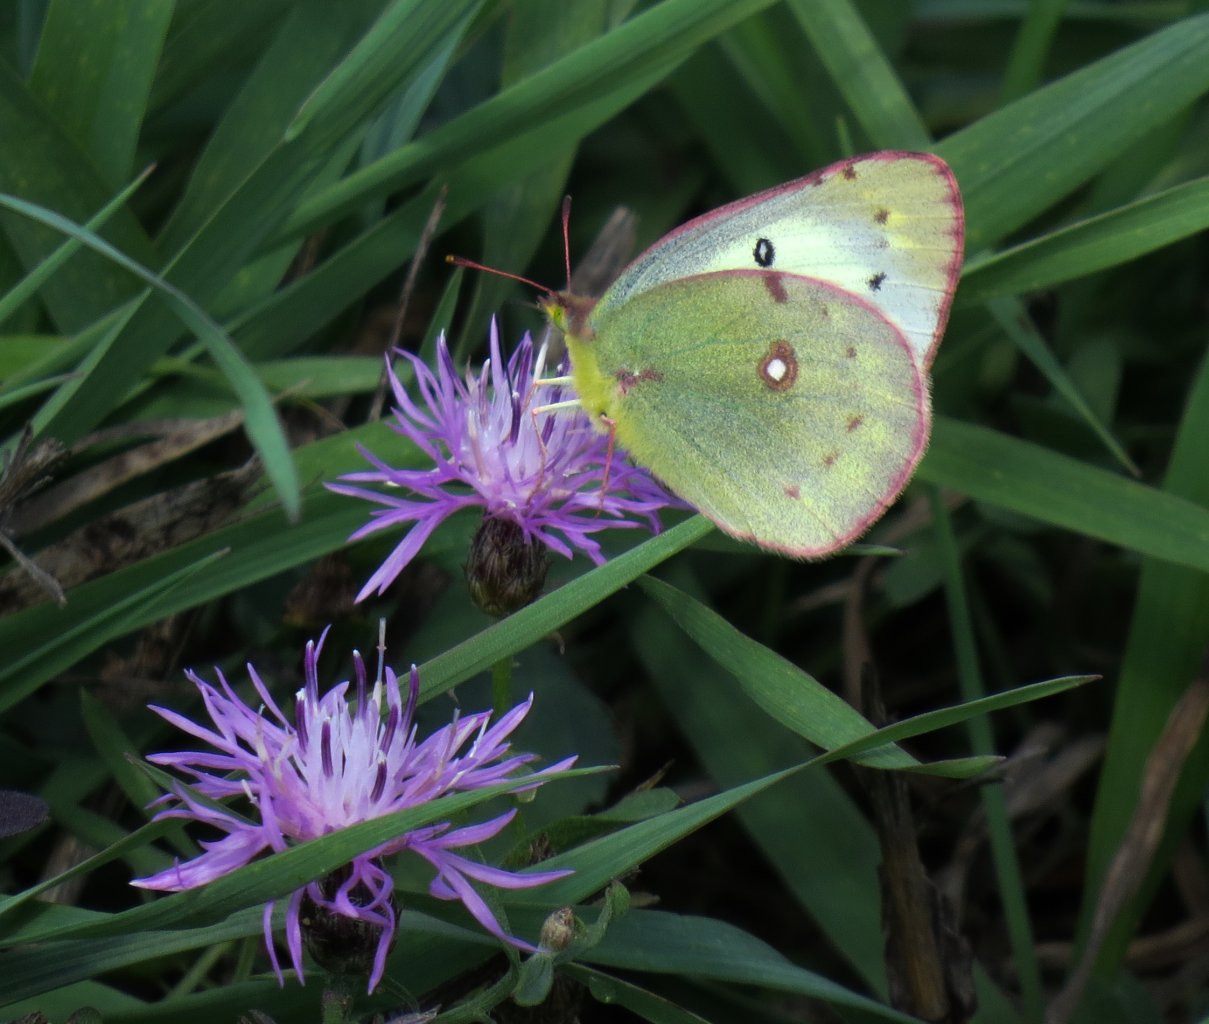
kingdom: Animalia
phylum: Arthropoda
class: Insecta
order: Lepidoptera
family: Pieridae
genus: Colias
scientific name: Colias philodice
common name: Clouded Sulphur
